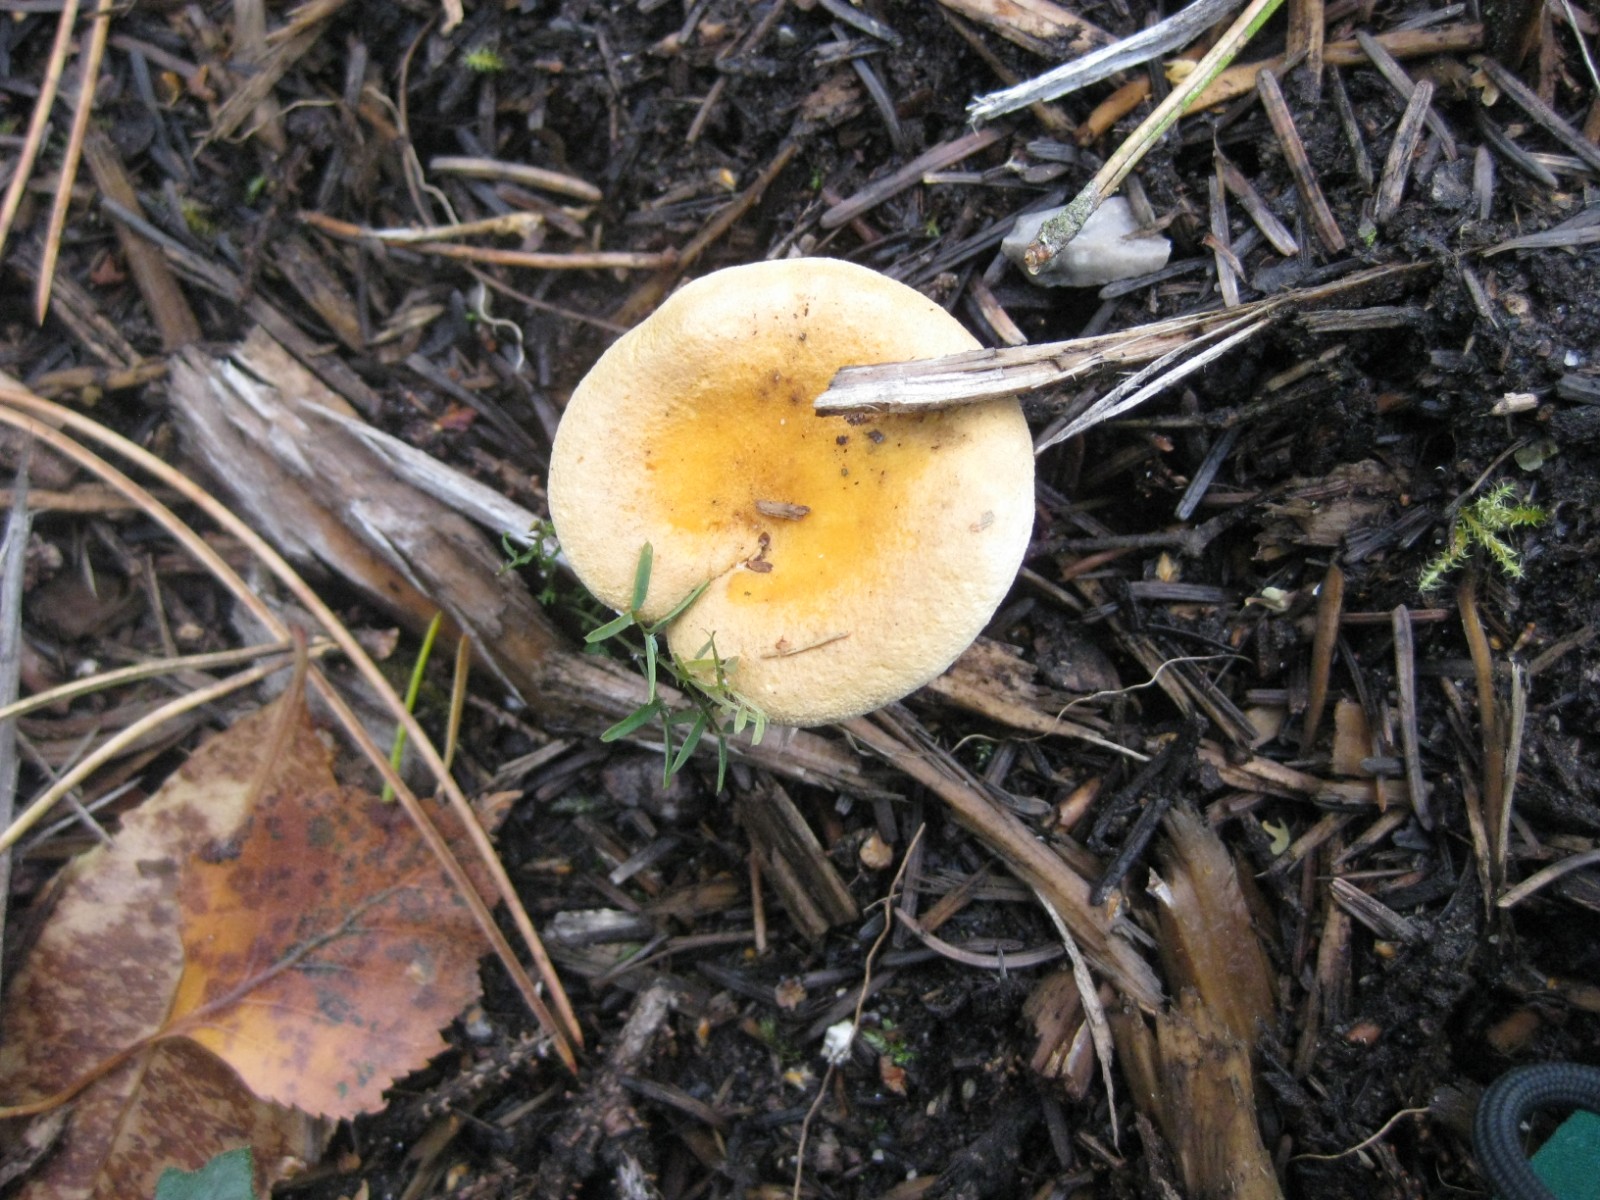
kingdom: Fungi
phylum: Basidiomycota
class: Agaricomycetes
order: Boletales
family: Hygrophoropsidaceae
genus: Hygrophoropsis
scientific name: Hygrophoropsis aurantiaca
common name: almindelig orangekantarel
